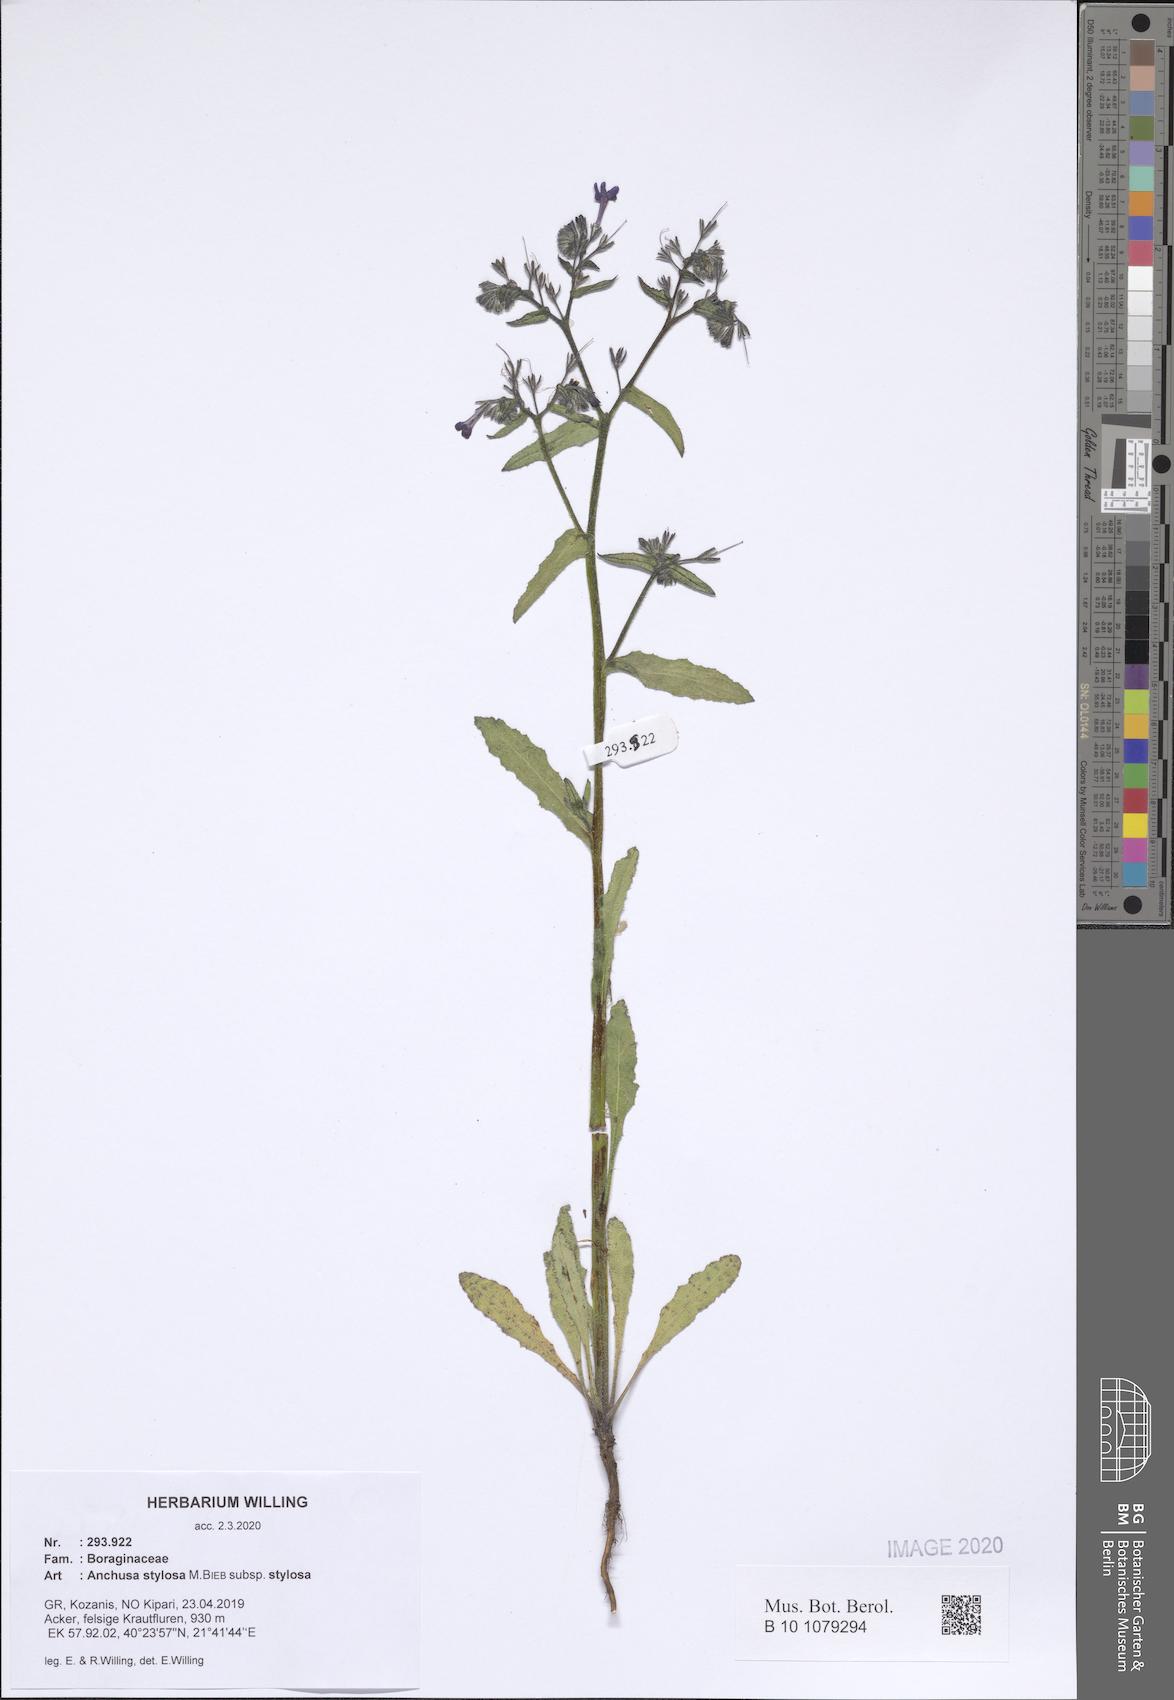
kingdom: Plantae
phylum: Tracheophyta
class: Magnoliopsida
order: Boraginales
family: Boraginaceae
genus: Anchusa
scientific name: Anchusa stylosa
